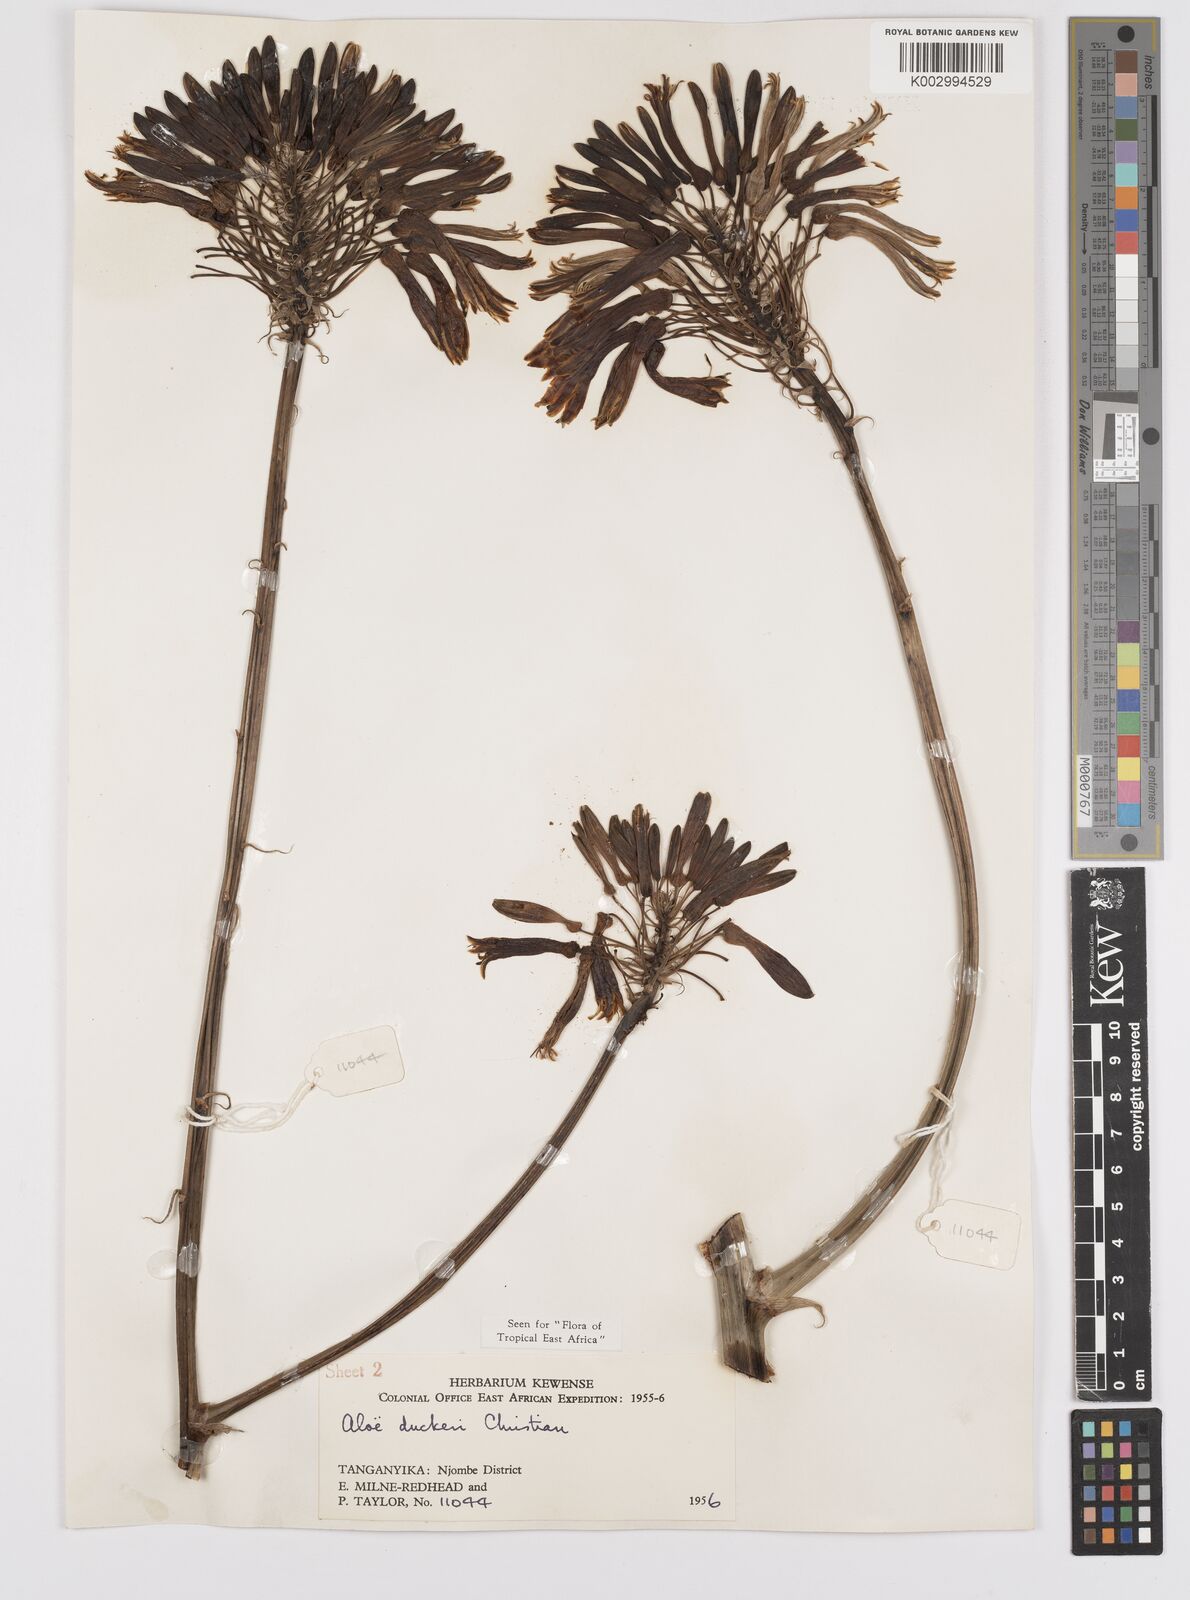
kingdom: Plantae
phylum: Tracheophyta
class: Liliopsida
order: Asparagales
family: Asphodelaceae
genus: Aloe
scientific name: Aloe duckeri
